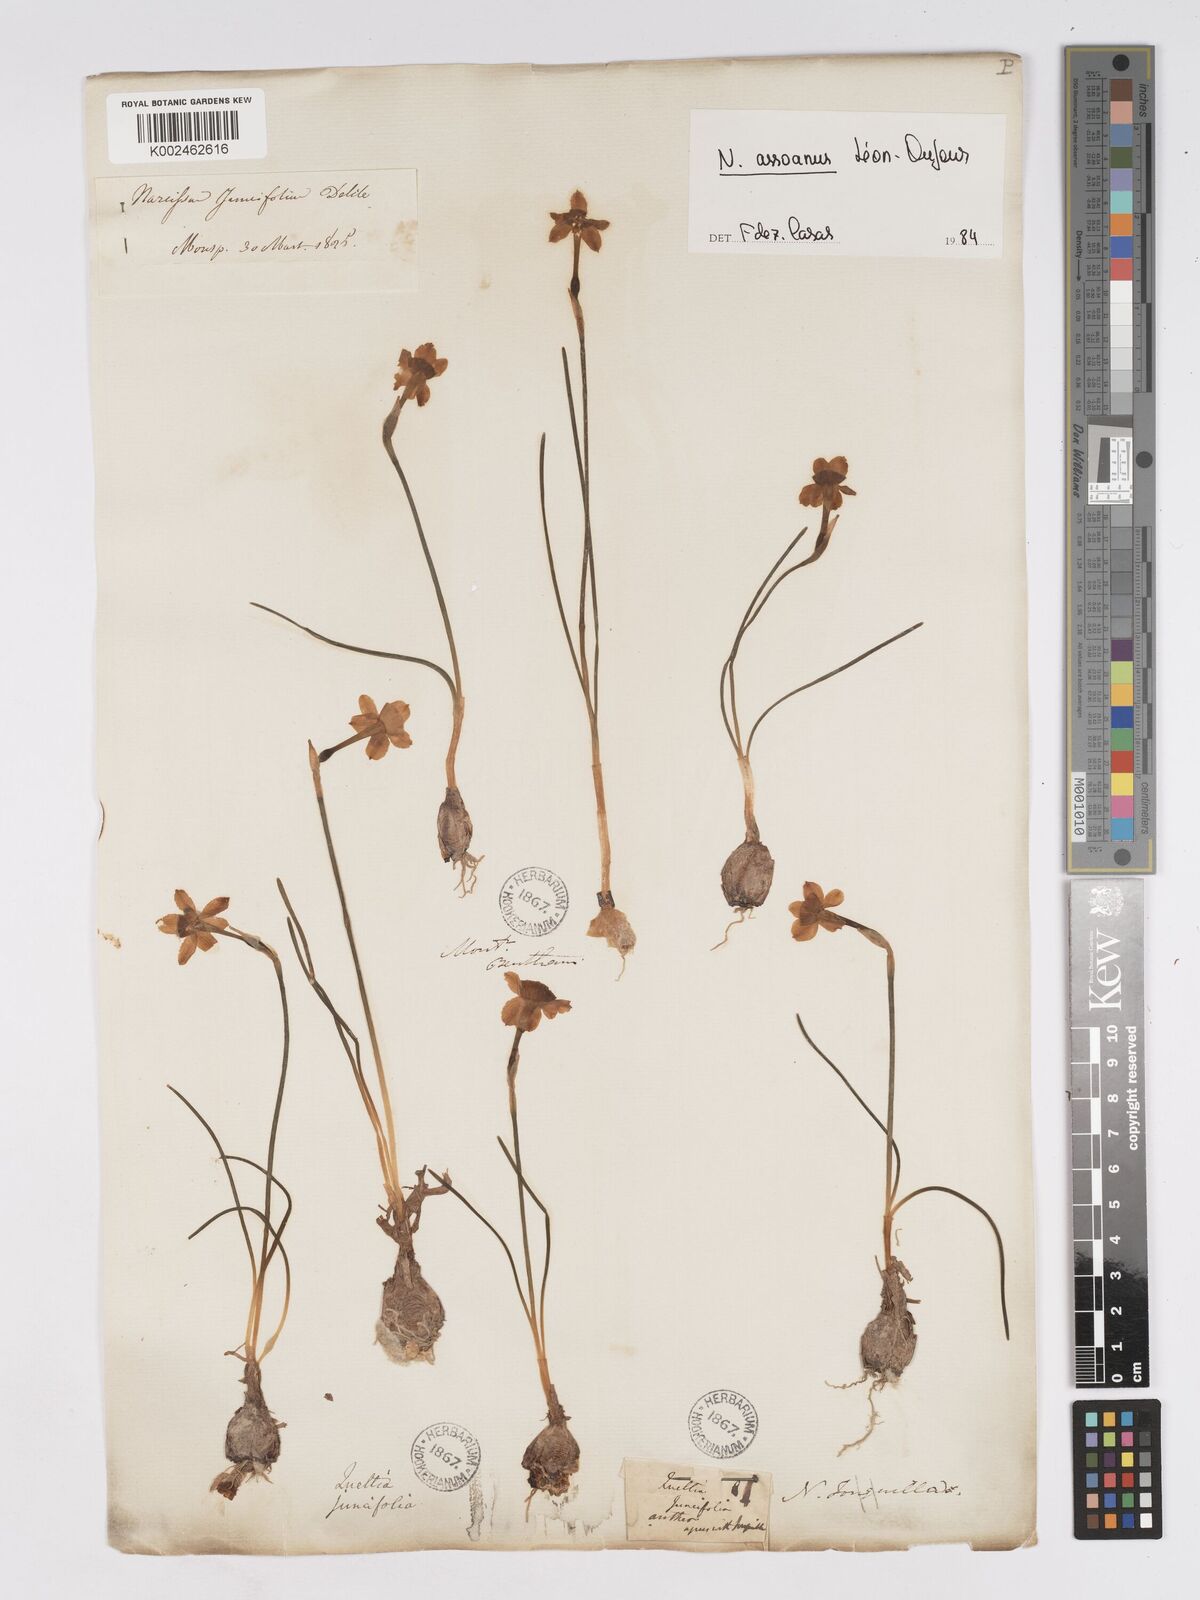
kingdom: Plantae
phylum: Tracheophyta
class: Liliopsida
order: Asparagales
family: Amaryllidaceae
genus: Narcissus
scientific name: Narcissus assoanus
